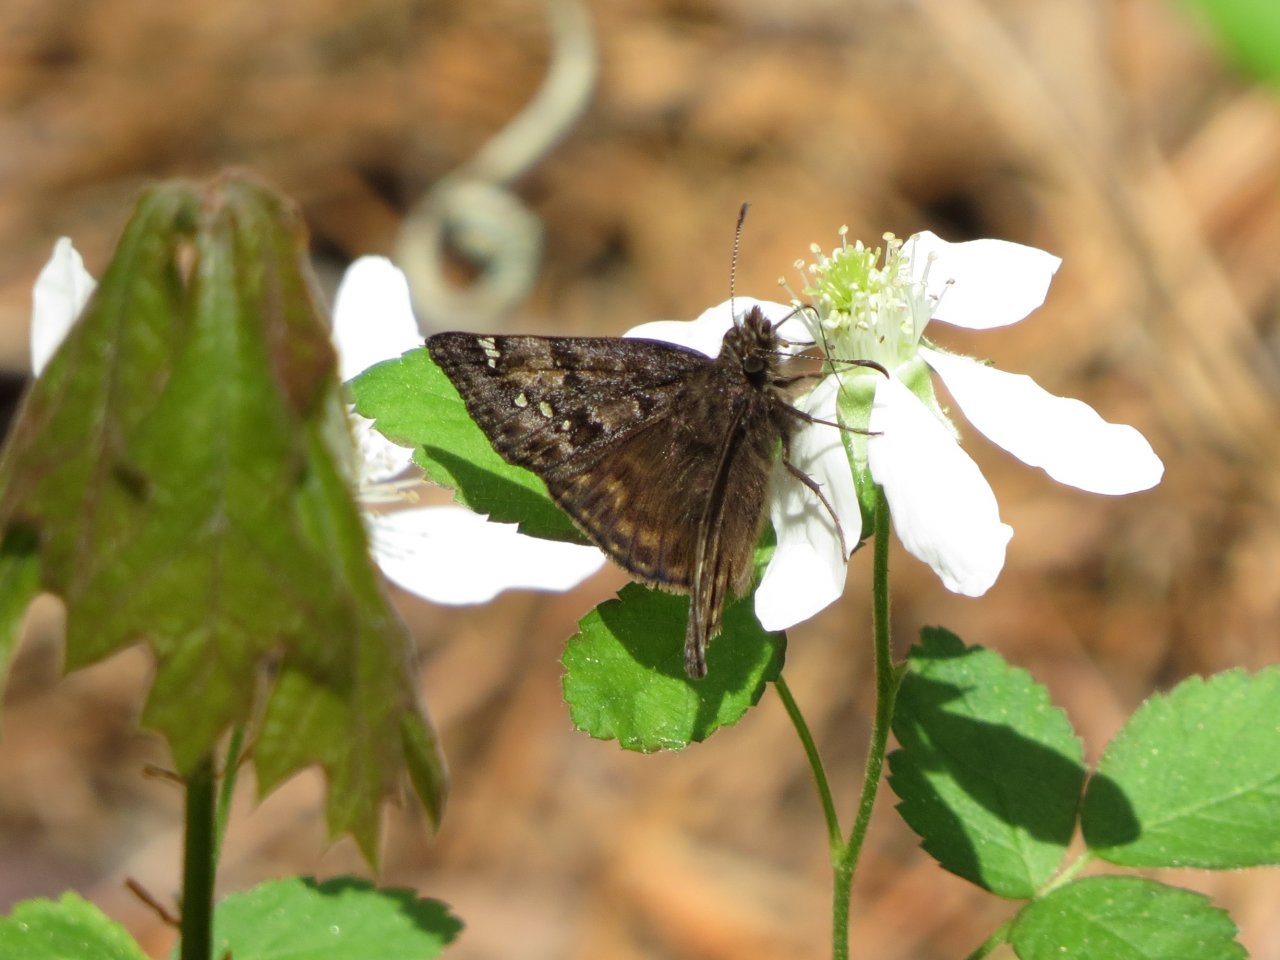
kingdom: Animalia
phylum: Arthropoda
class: Insecta
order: Lepidoptera
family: Hesperiidae
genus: Gesta
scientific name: Gesta
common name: Juvenal's Duskywing
